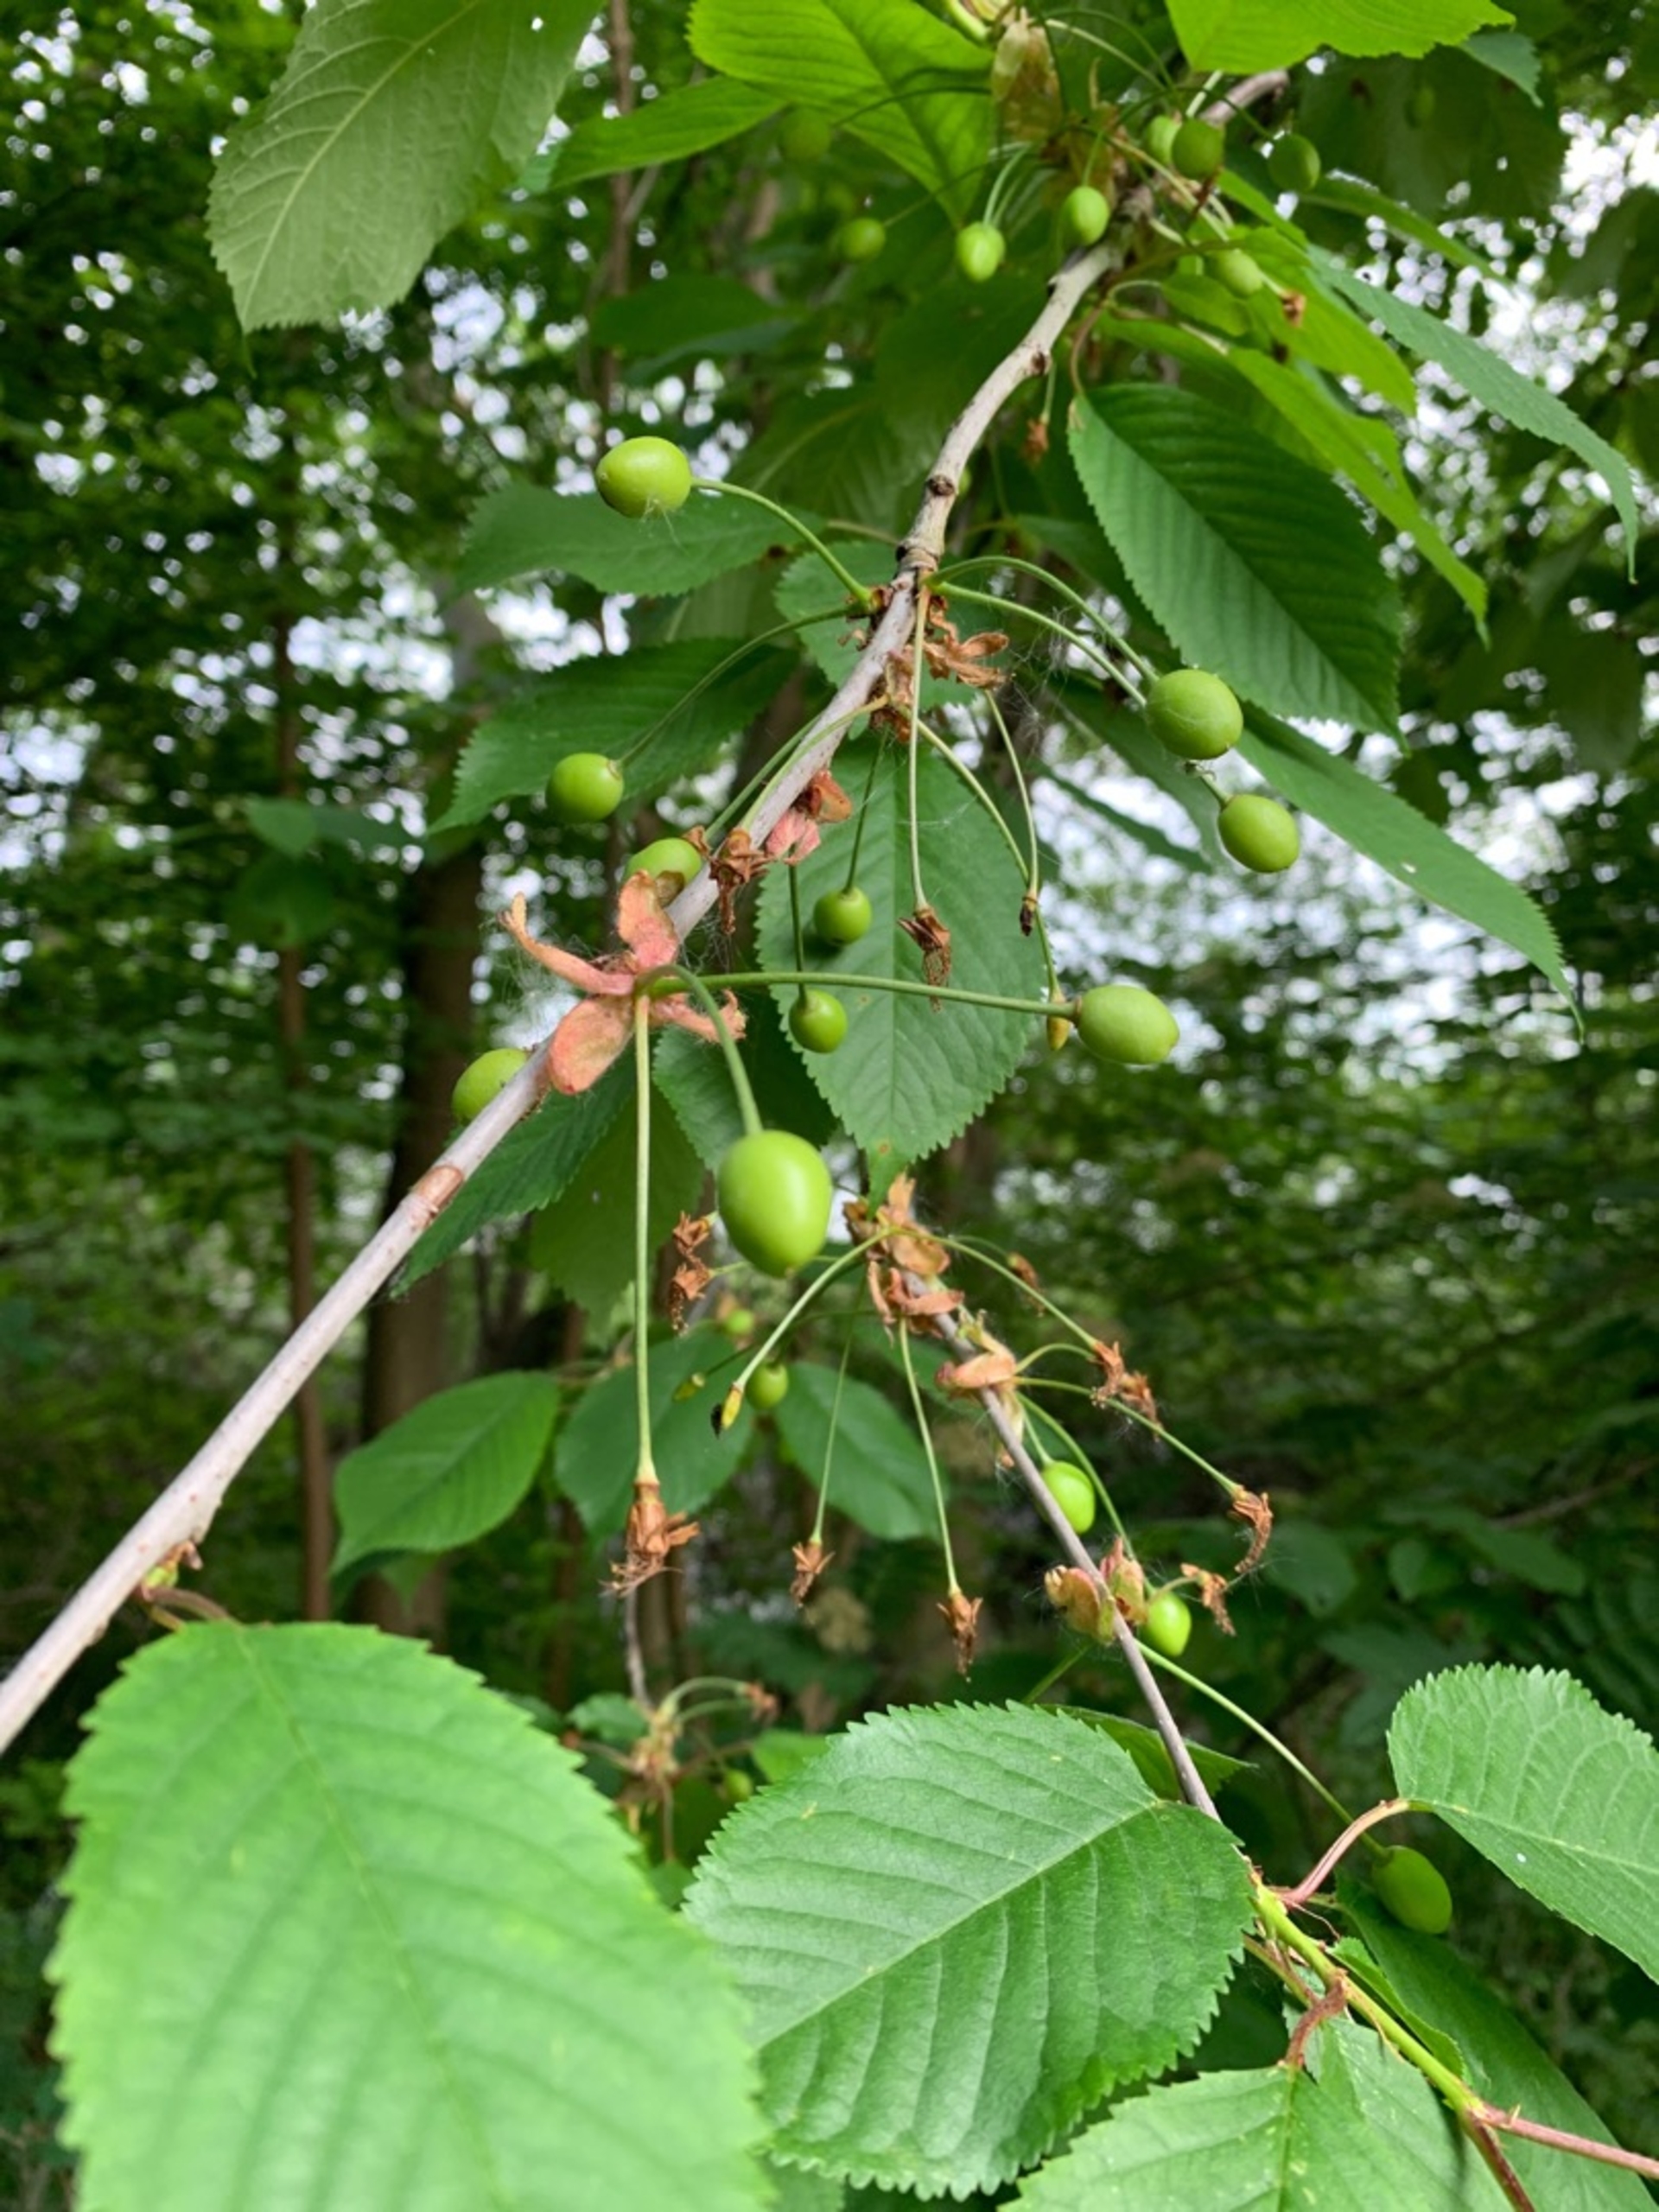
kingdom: Plantae
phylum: Tracheophyta
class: Magnoliopsida
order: Rosales
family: Rosaceae
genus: Prunus
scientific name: Prunus avium
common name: Fugle-kirsebær
